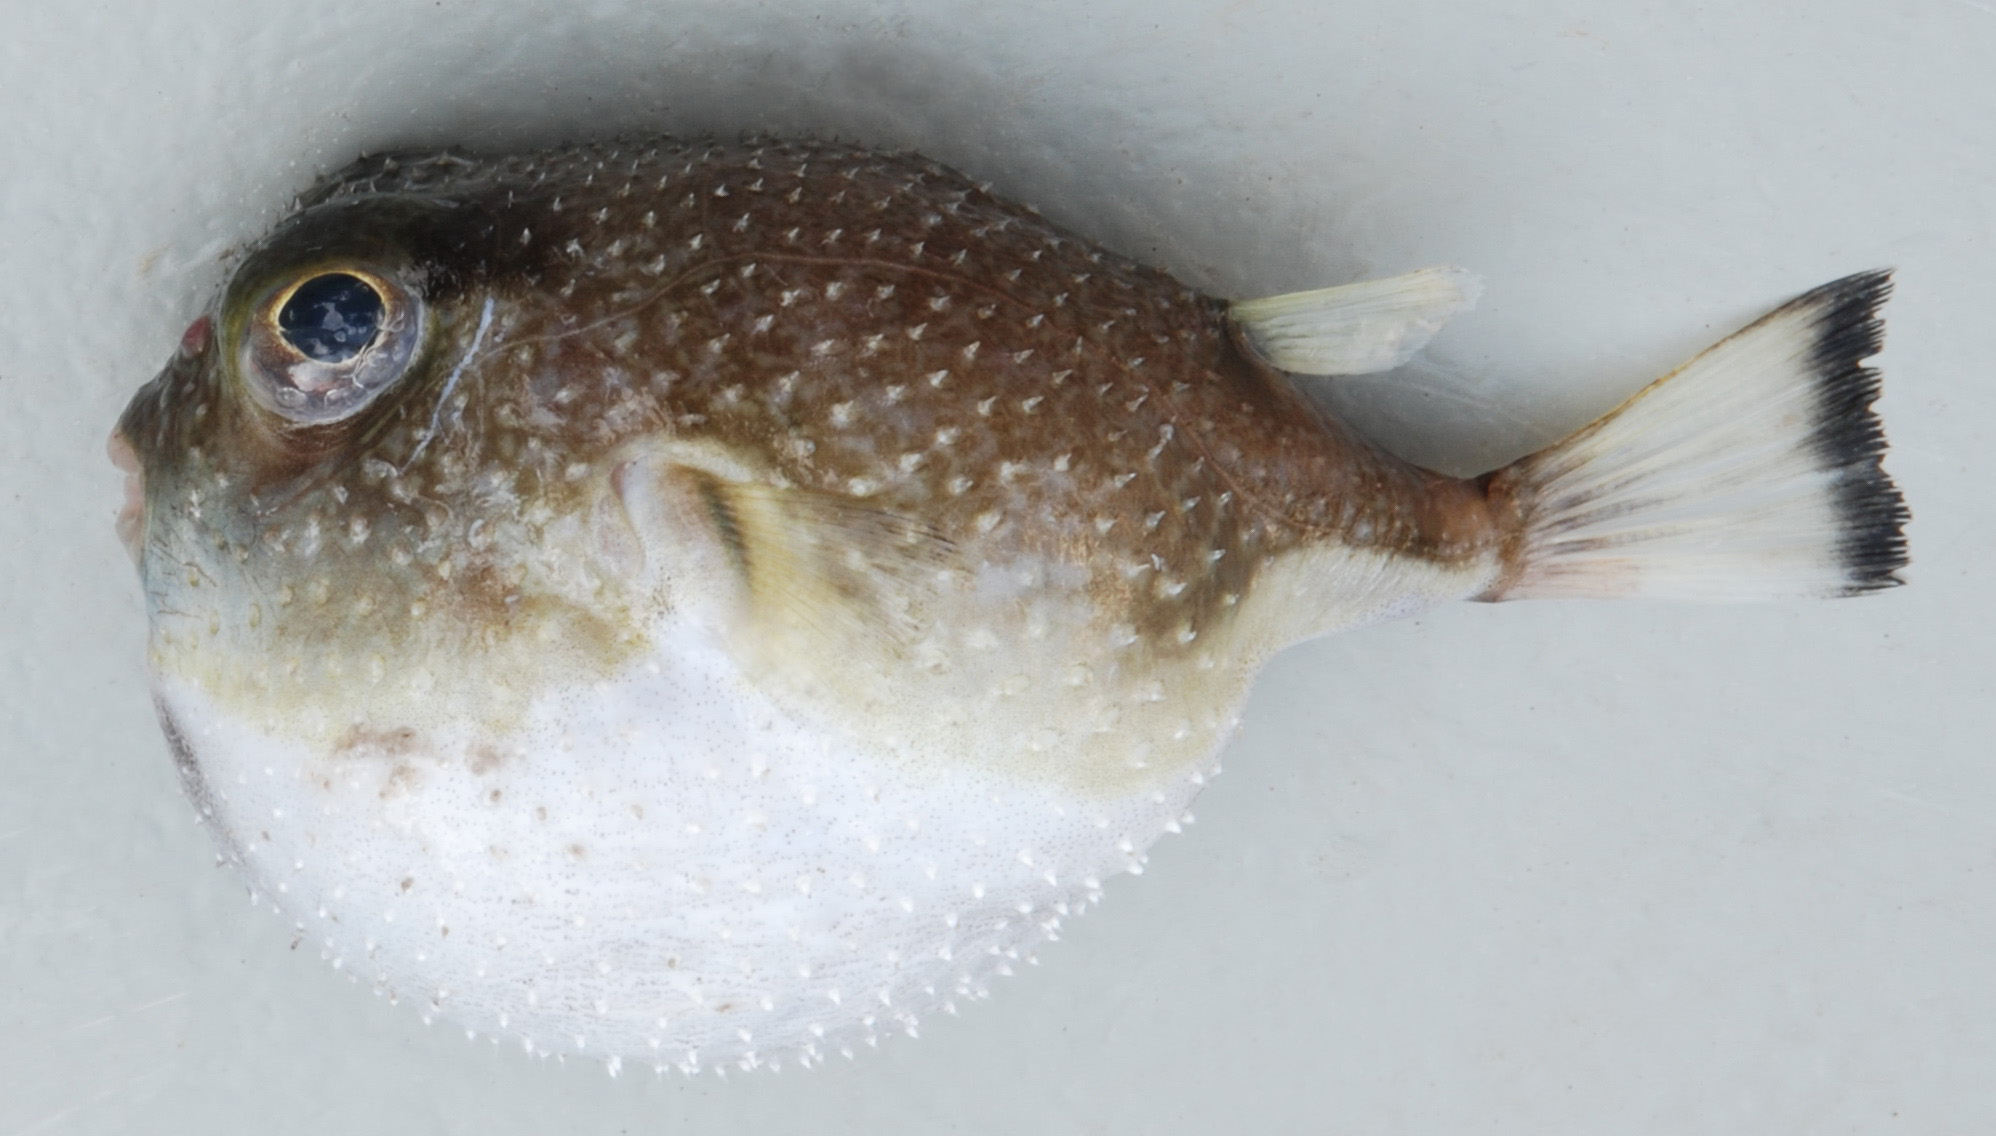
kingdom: Animalia
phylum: Chordata
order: Tetraodontiformes
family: Tetraodontidae
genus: Tylerius
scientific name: Tylerius spinosissimus
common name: Spiny blaasop
